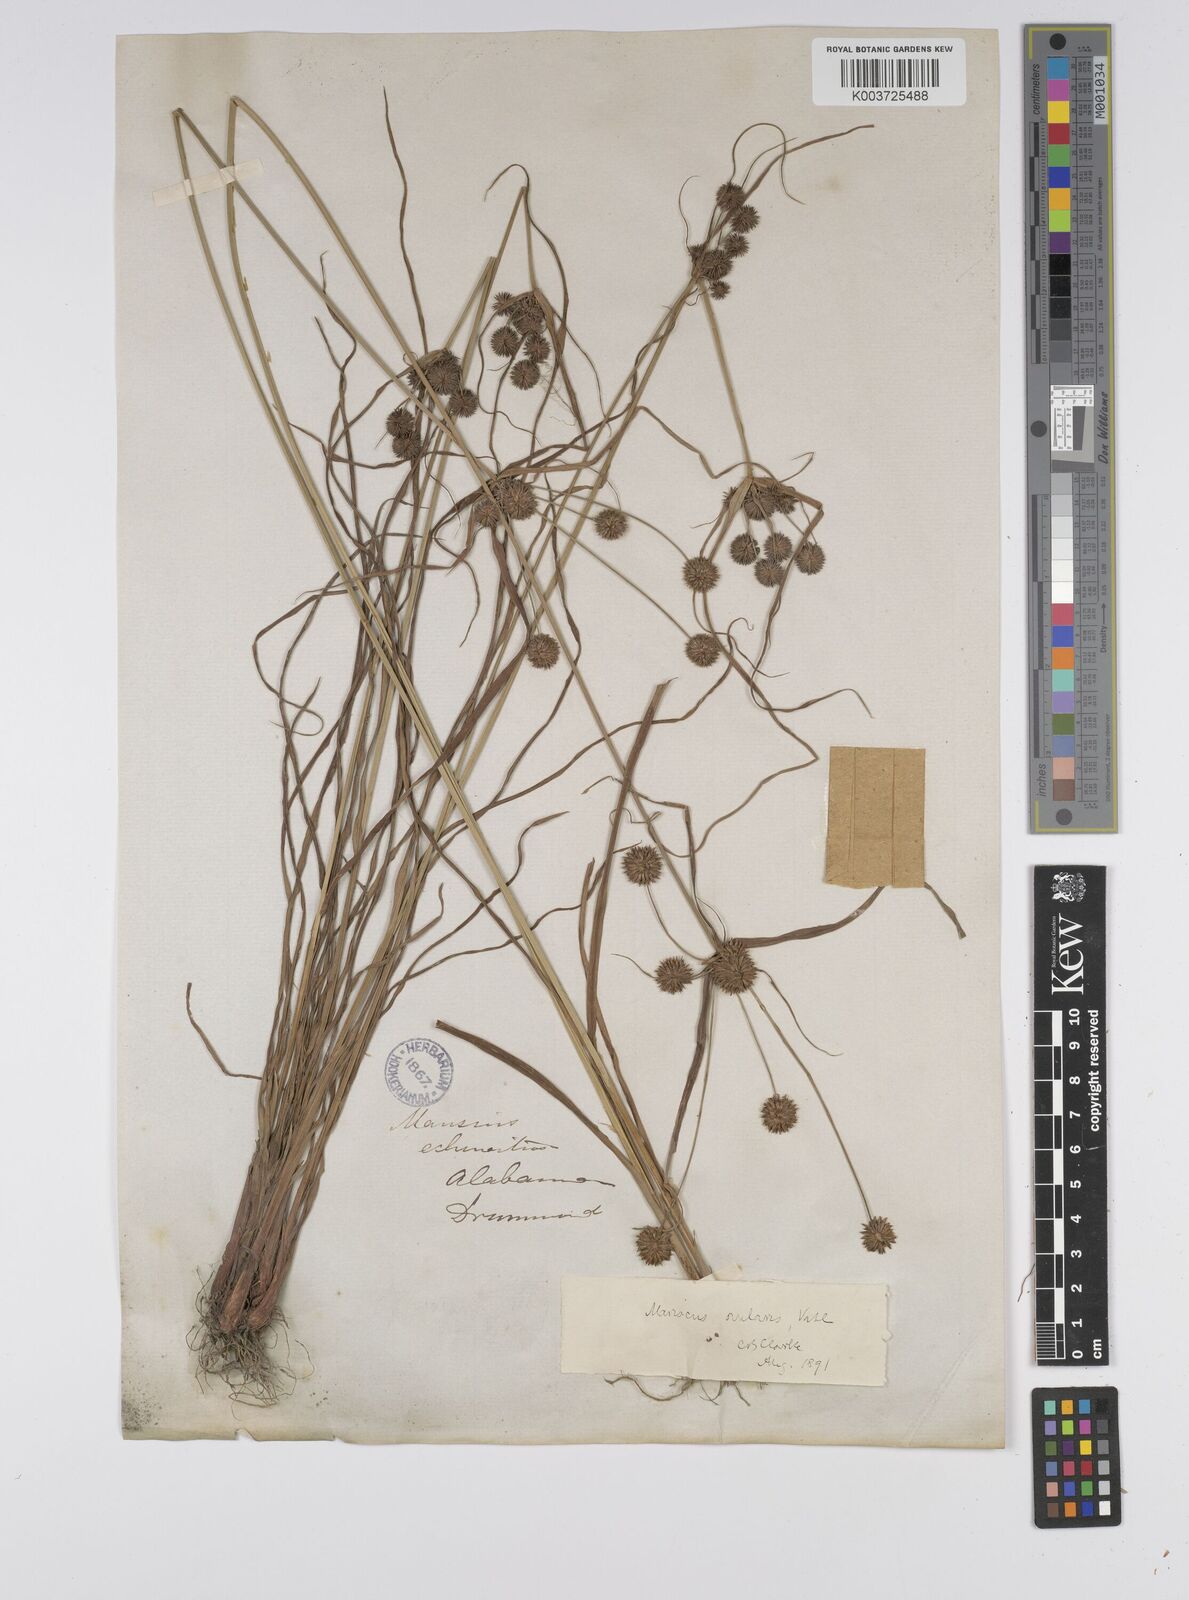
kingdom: Plantae
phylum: Tracheophyta
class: Liliopsida
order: Poales
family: Cyperaceae
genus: Cyperus
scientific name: Cyperus echinatus
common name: Teasel sedge
